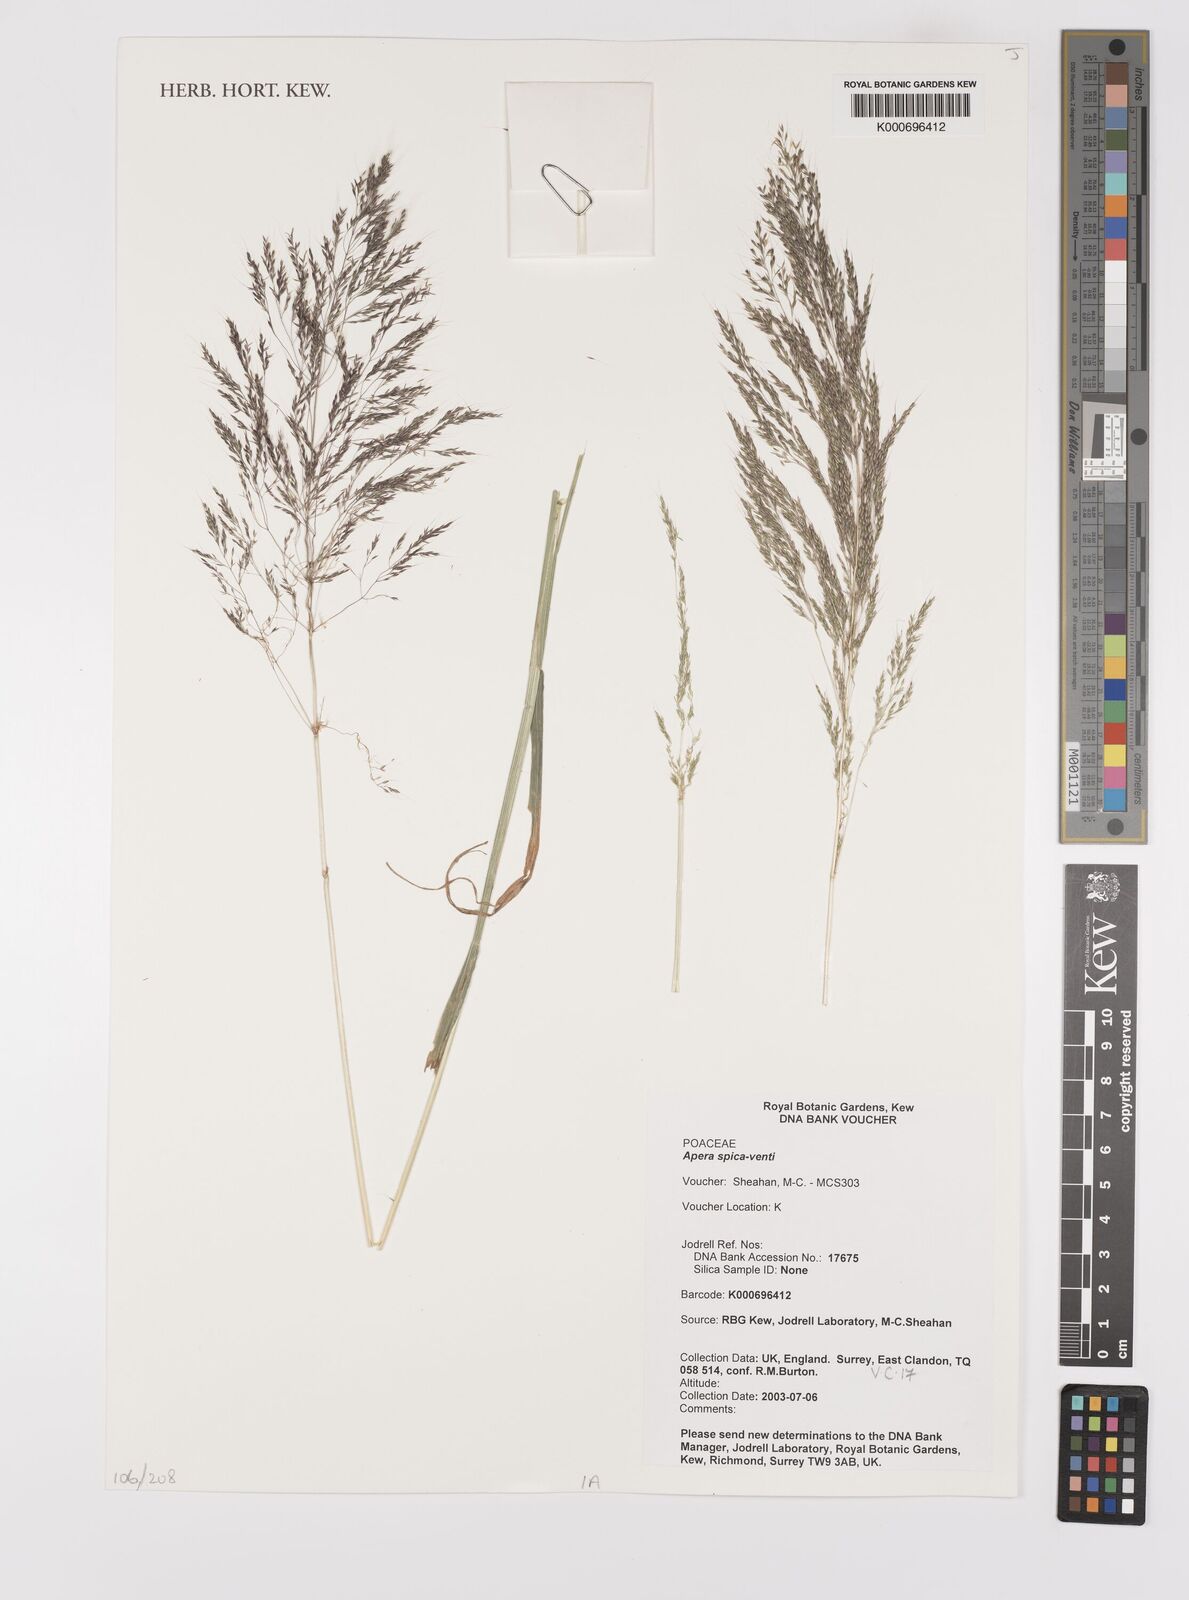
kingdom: Plantae
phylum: Tracheophyta
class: Liliopsida
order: Poales
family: Poaceae
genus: Apera
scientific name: Apera spica-venti
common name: Loose silky-bent
